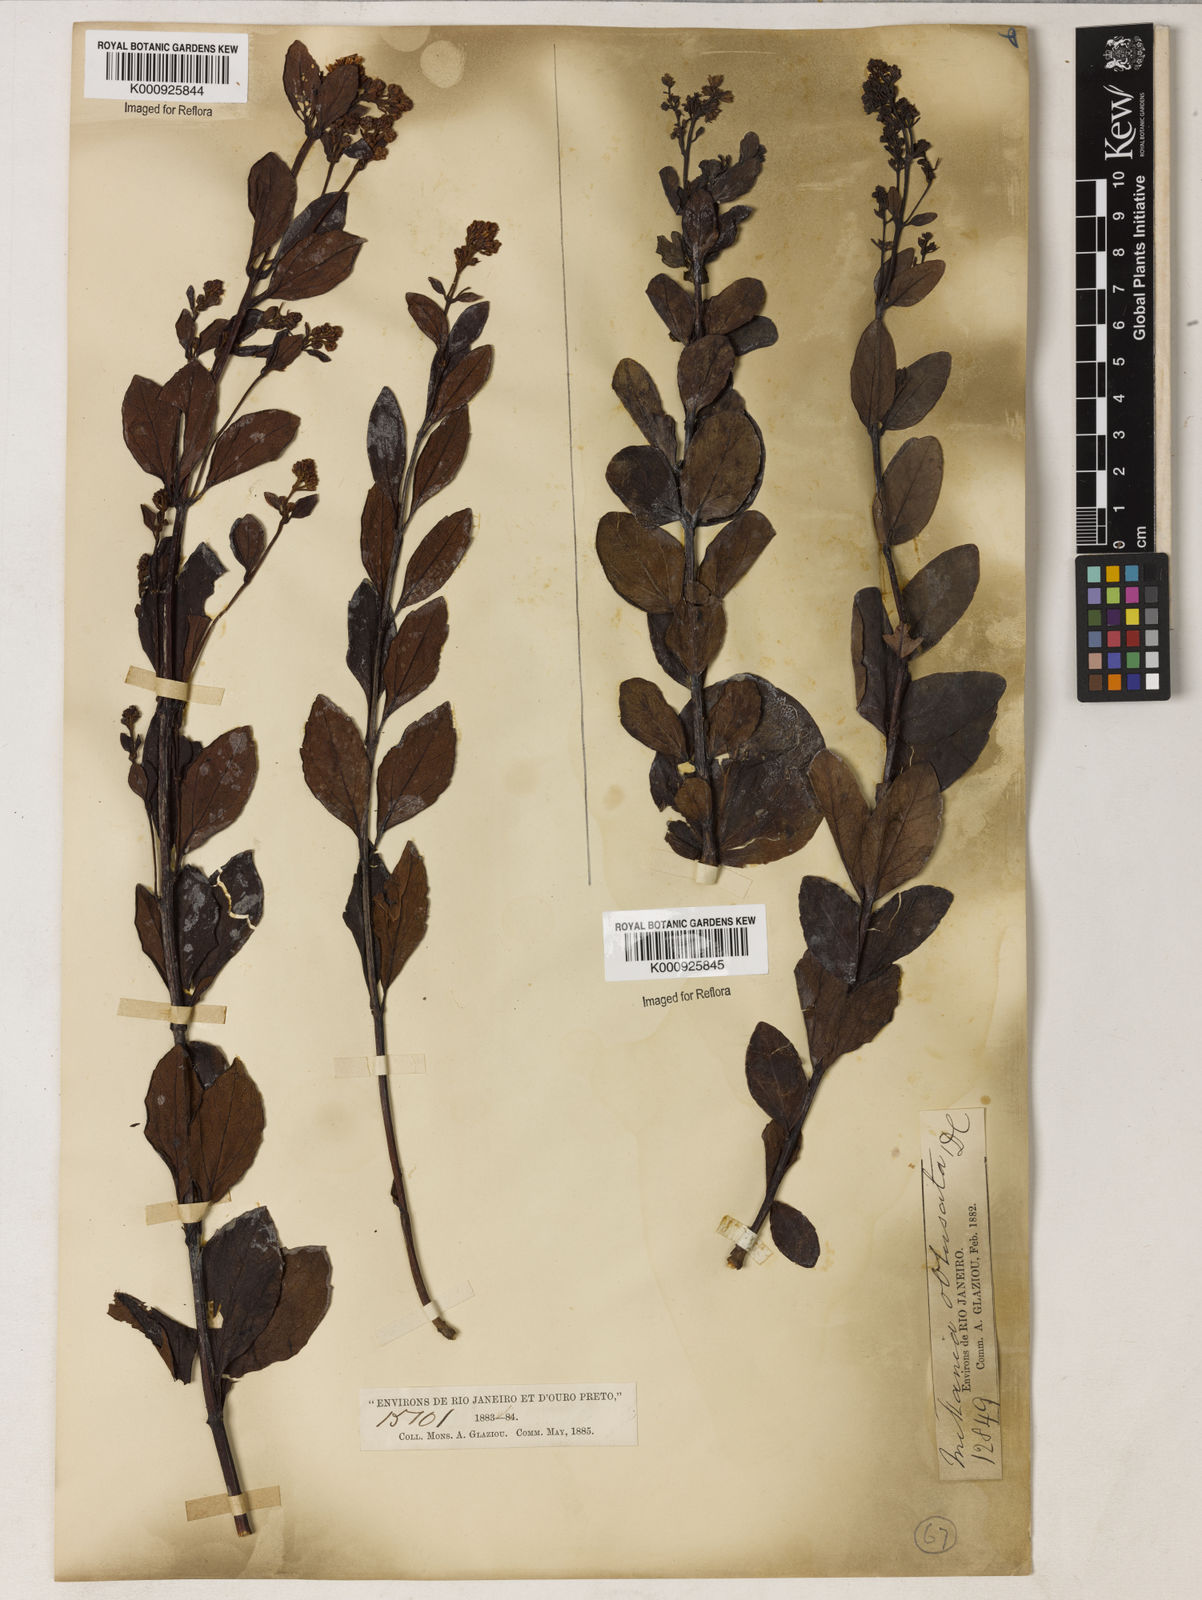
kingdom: Plantae
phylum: Tracheophyta
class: Magnoliopsida
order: Asterales
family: Asteraceae
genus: Mikania
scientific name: Mikania obtusata
